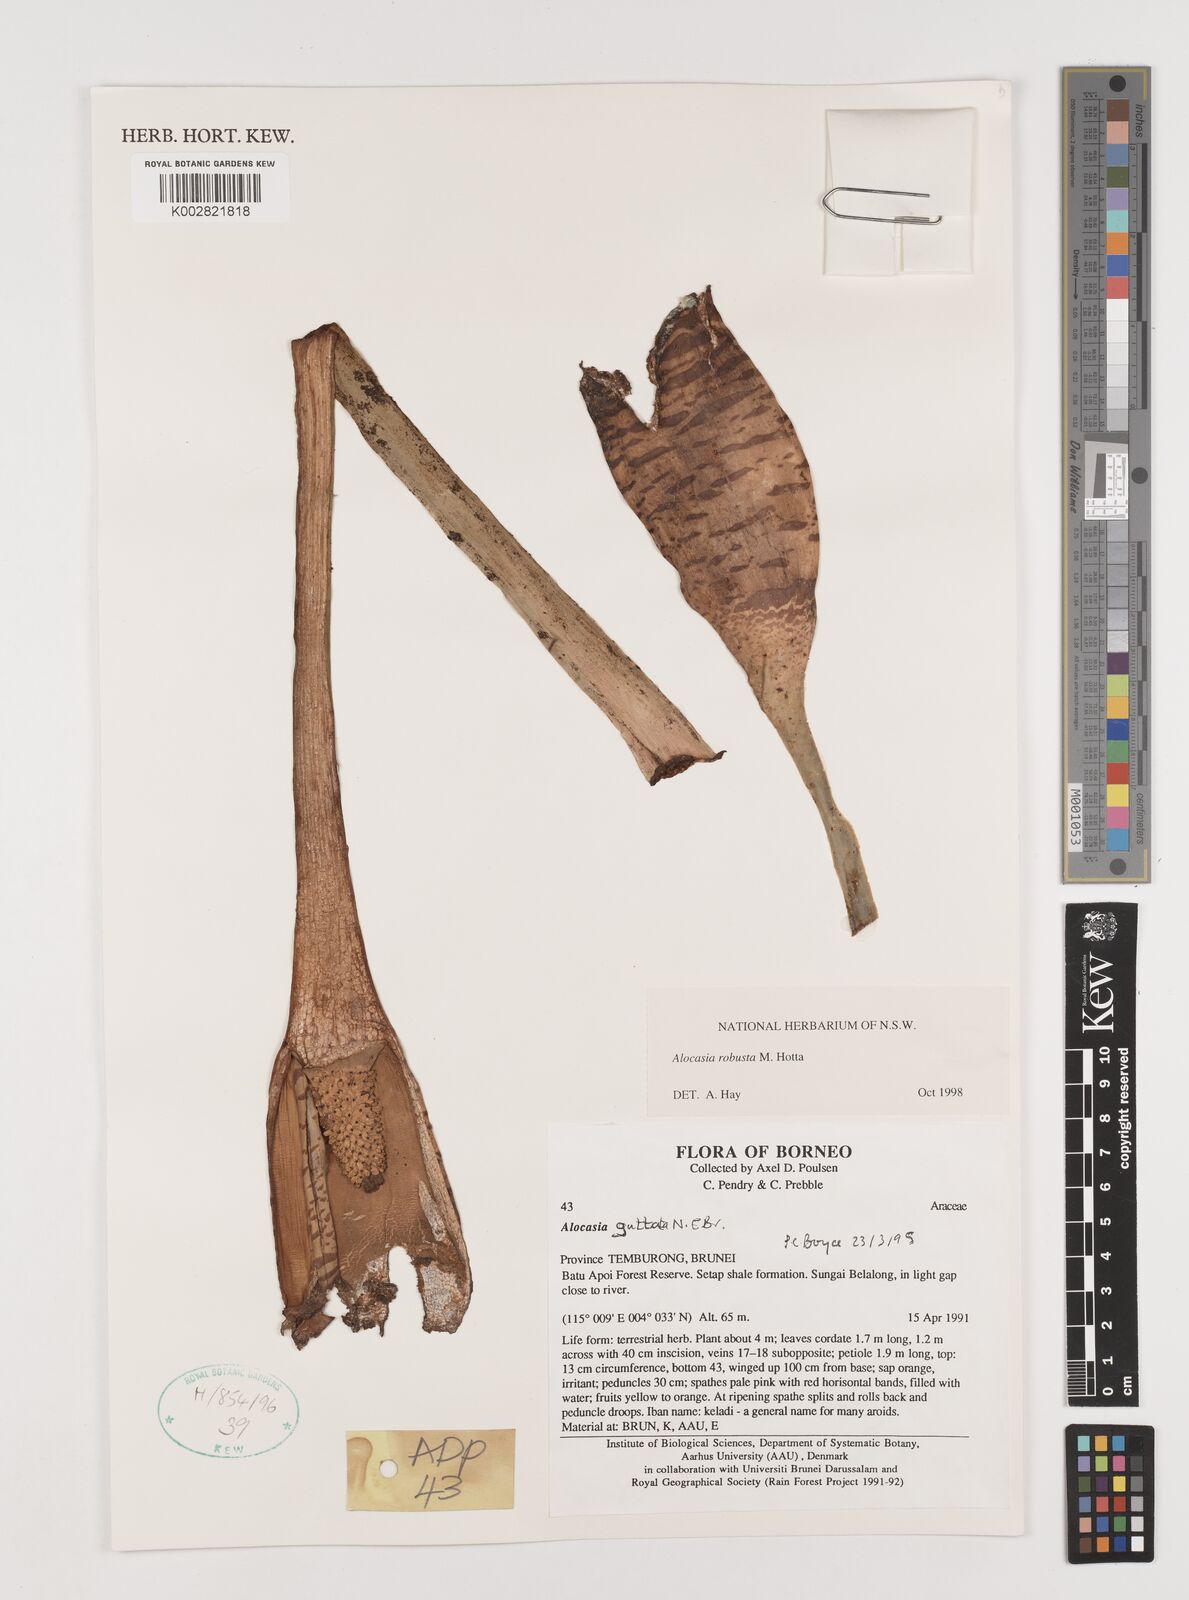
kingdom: Plantae
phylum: Tracheophyta
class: Liliopsida
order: Alismatales
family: Araceae
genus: Alocasia
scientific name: Alocasia robusta
